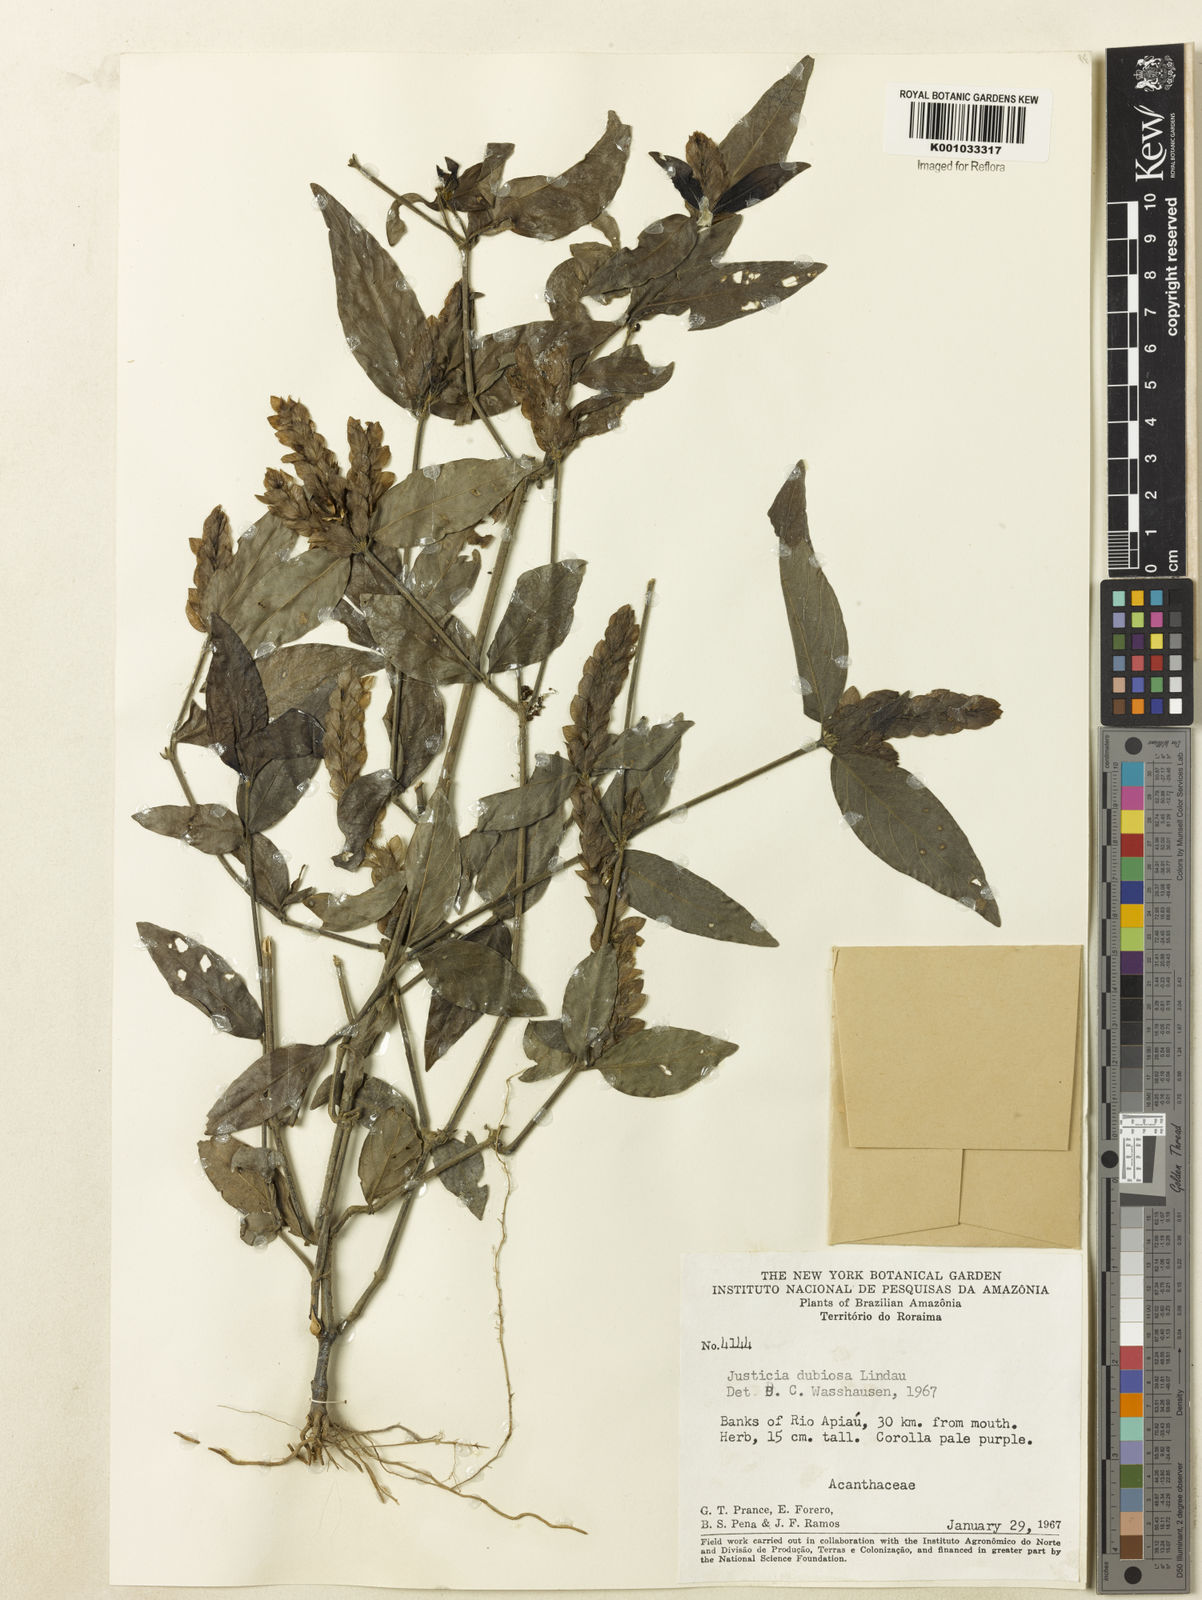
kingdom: Plantae
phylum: Tracheophyta
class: Magnoliopsida
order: Lamiales
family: Acanthaceae
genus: Justicia
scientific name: Justicia dubiosa
